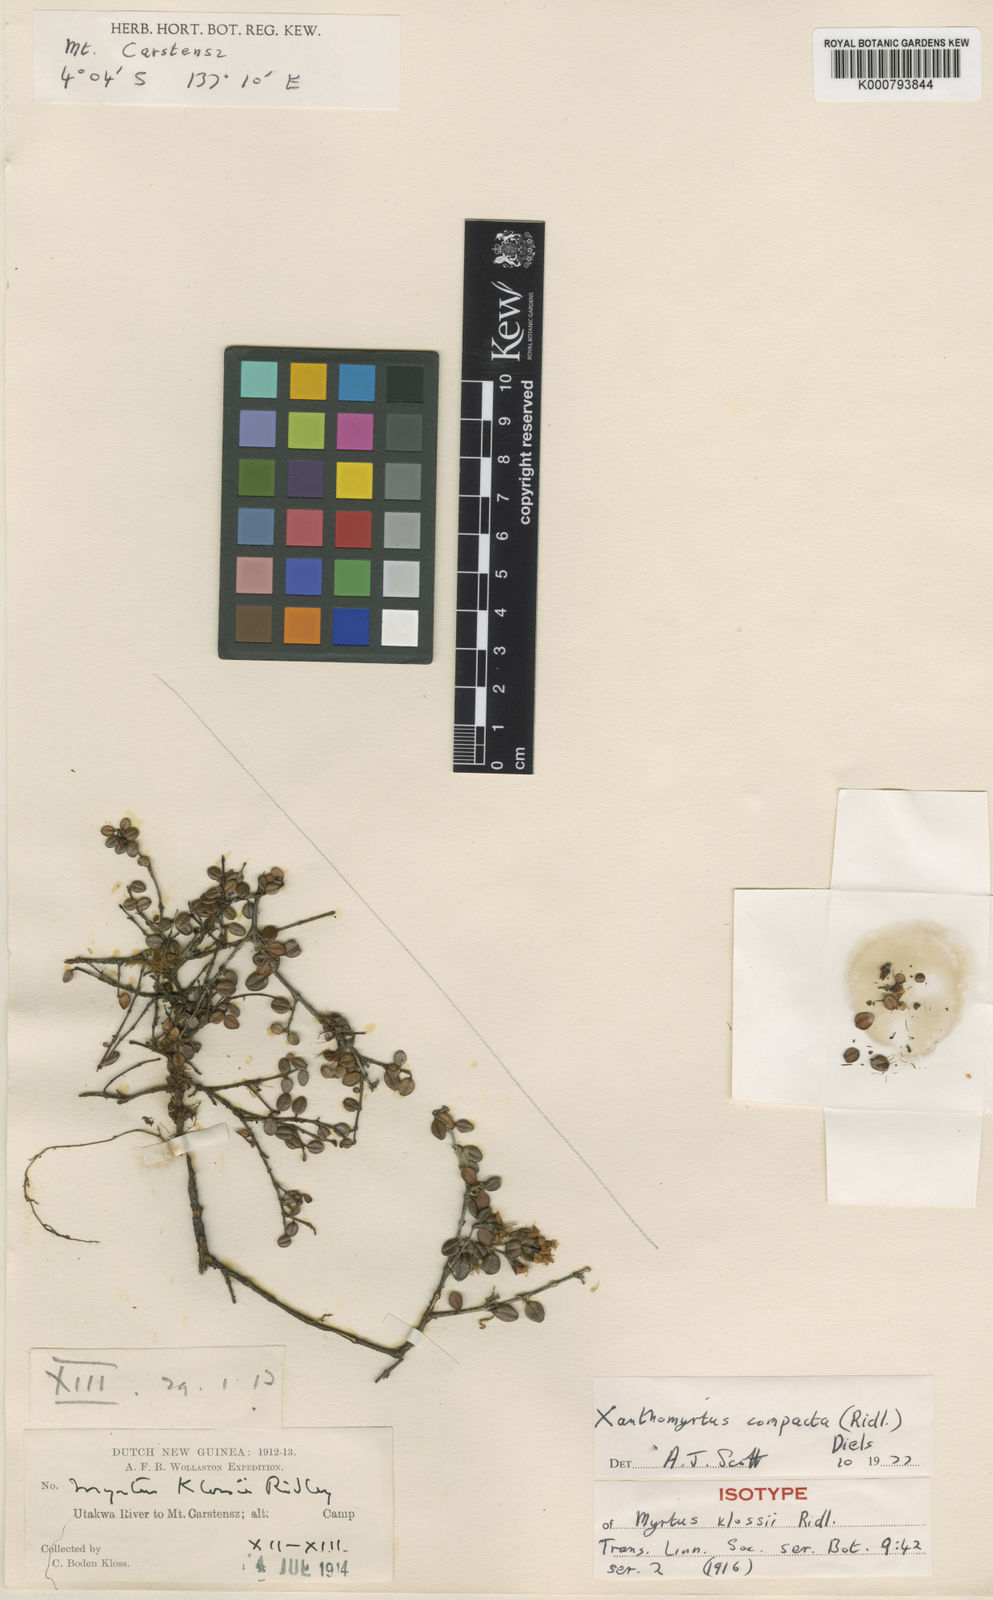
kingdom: Plantae
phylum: Tracheophyta
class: Magnoliopsida
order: Myrtales
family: Myrtaceae
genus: Xanthomyrtus
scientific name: Xanthomyrtus compacta
